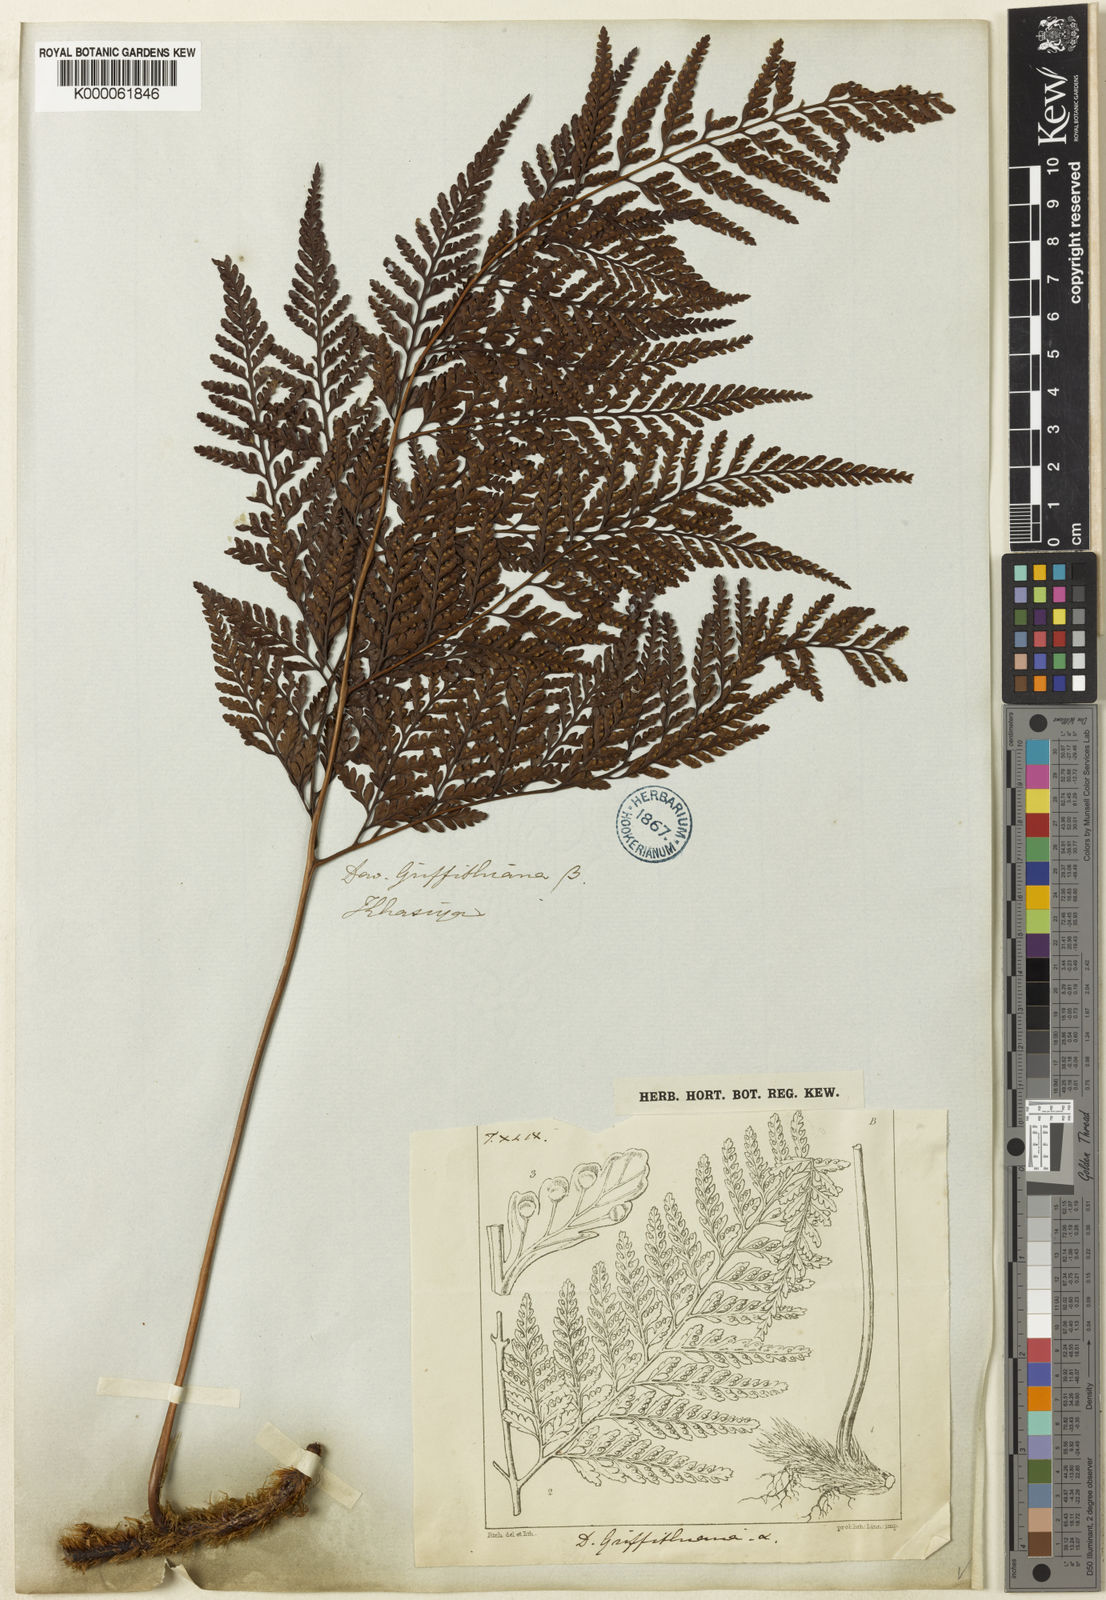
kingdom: Plantae
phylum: Tracheophyta
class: Polypodiopsida
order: Polypodiales
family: Davalliaceae
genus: Davallia
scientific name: Davallia griffithiana
